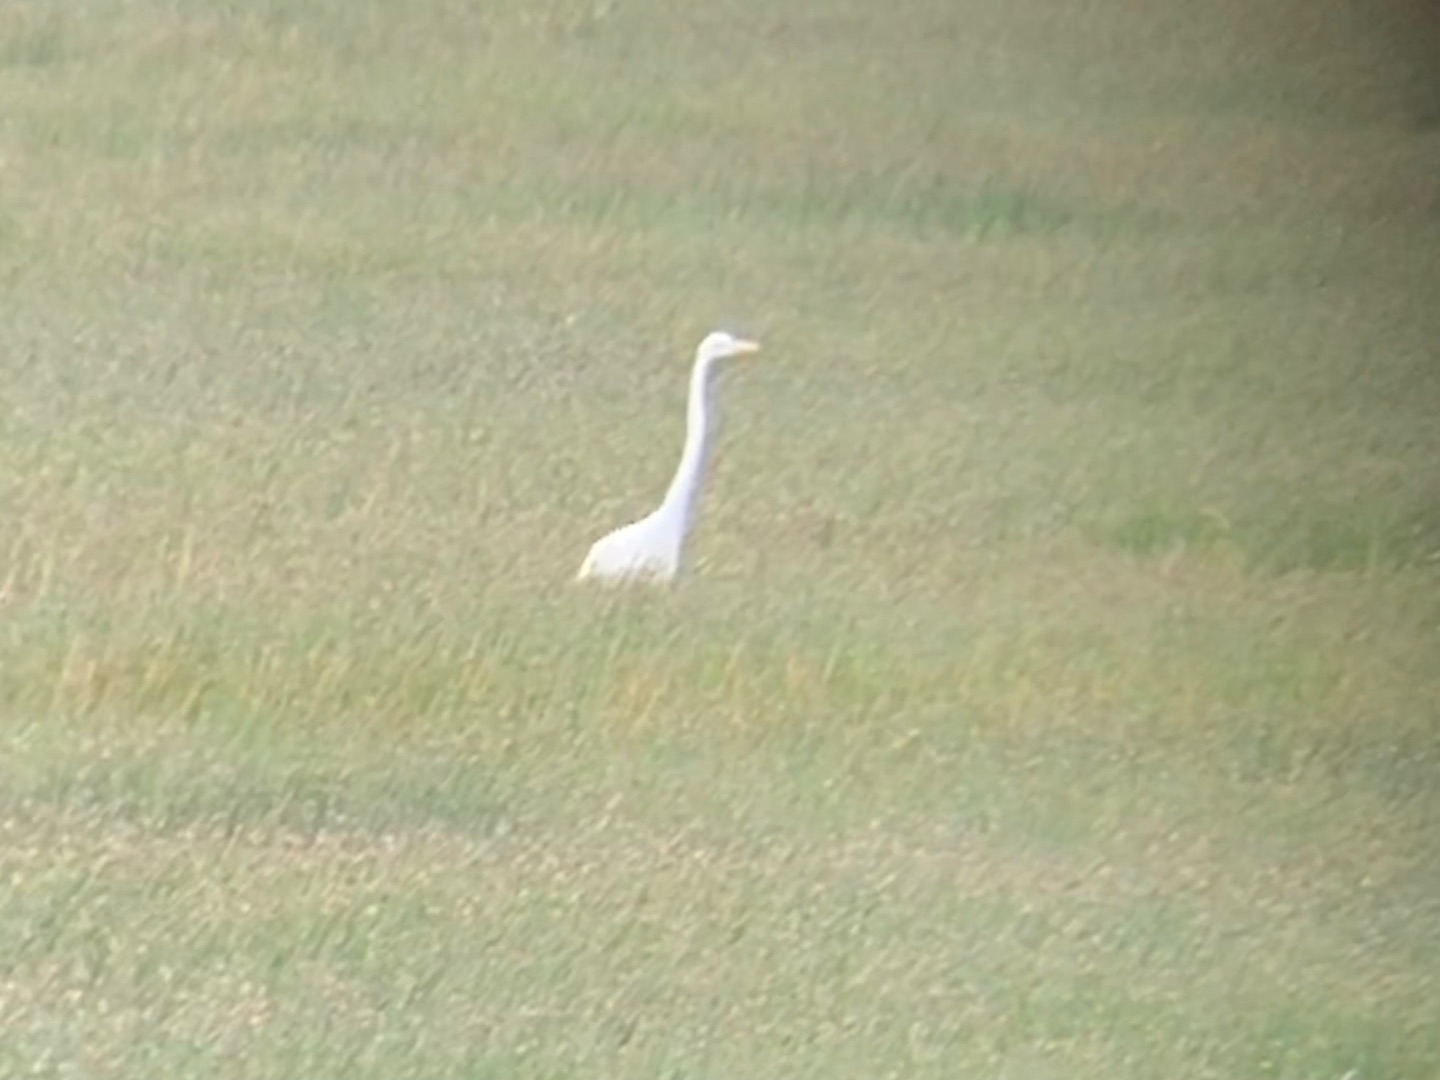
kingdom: Animalia
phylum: Chordata
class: Aves
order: Pelecaniformes
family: Ardeidae
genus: Ardea
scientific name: Ardea alba
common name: Sølvhejre
